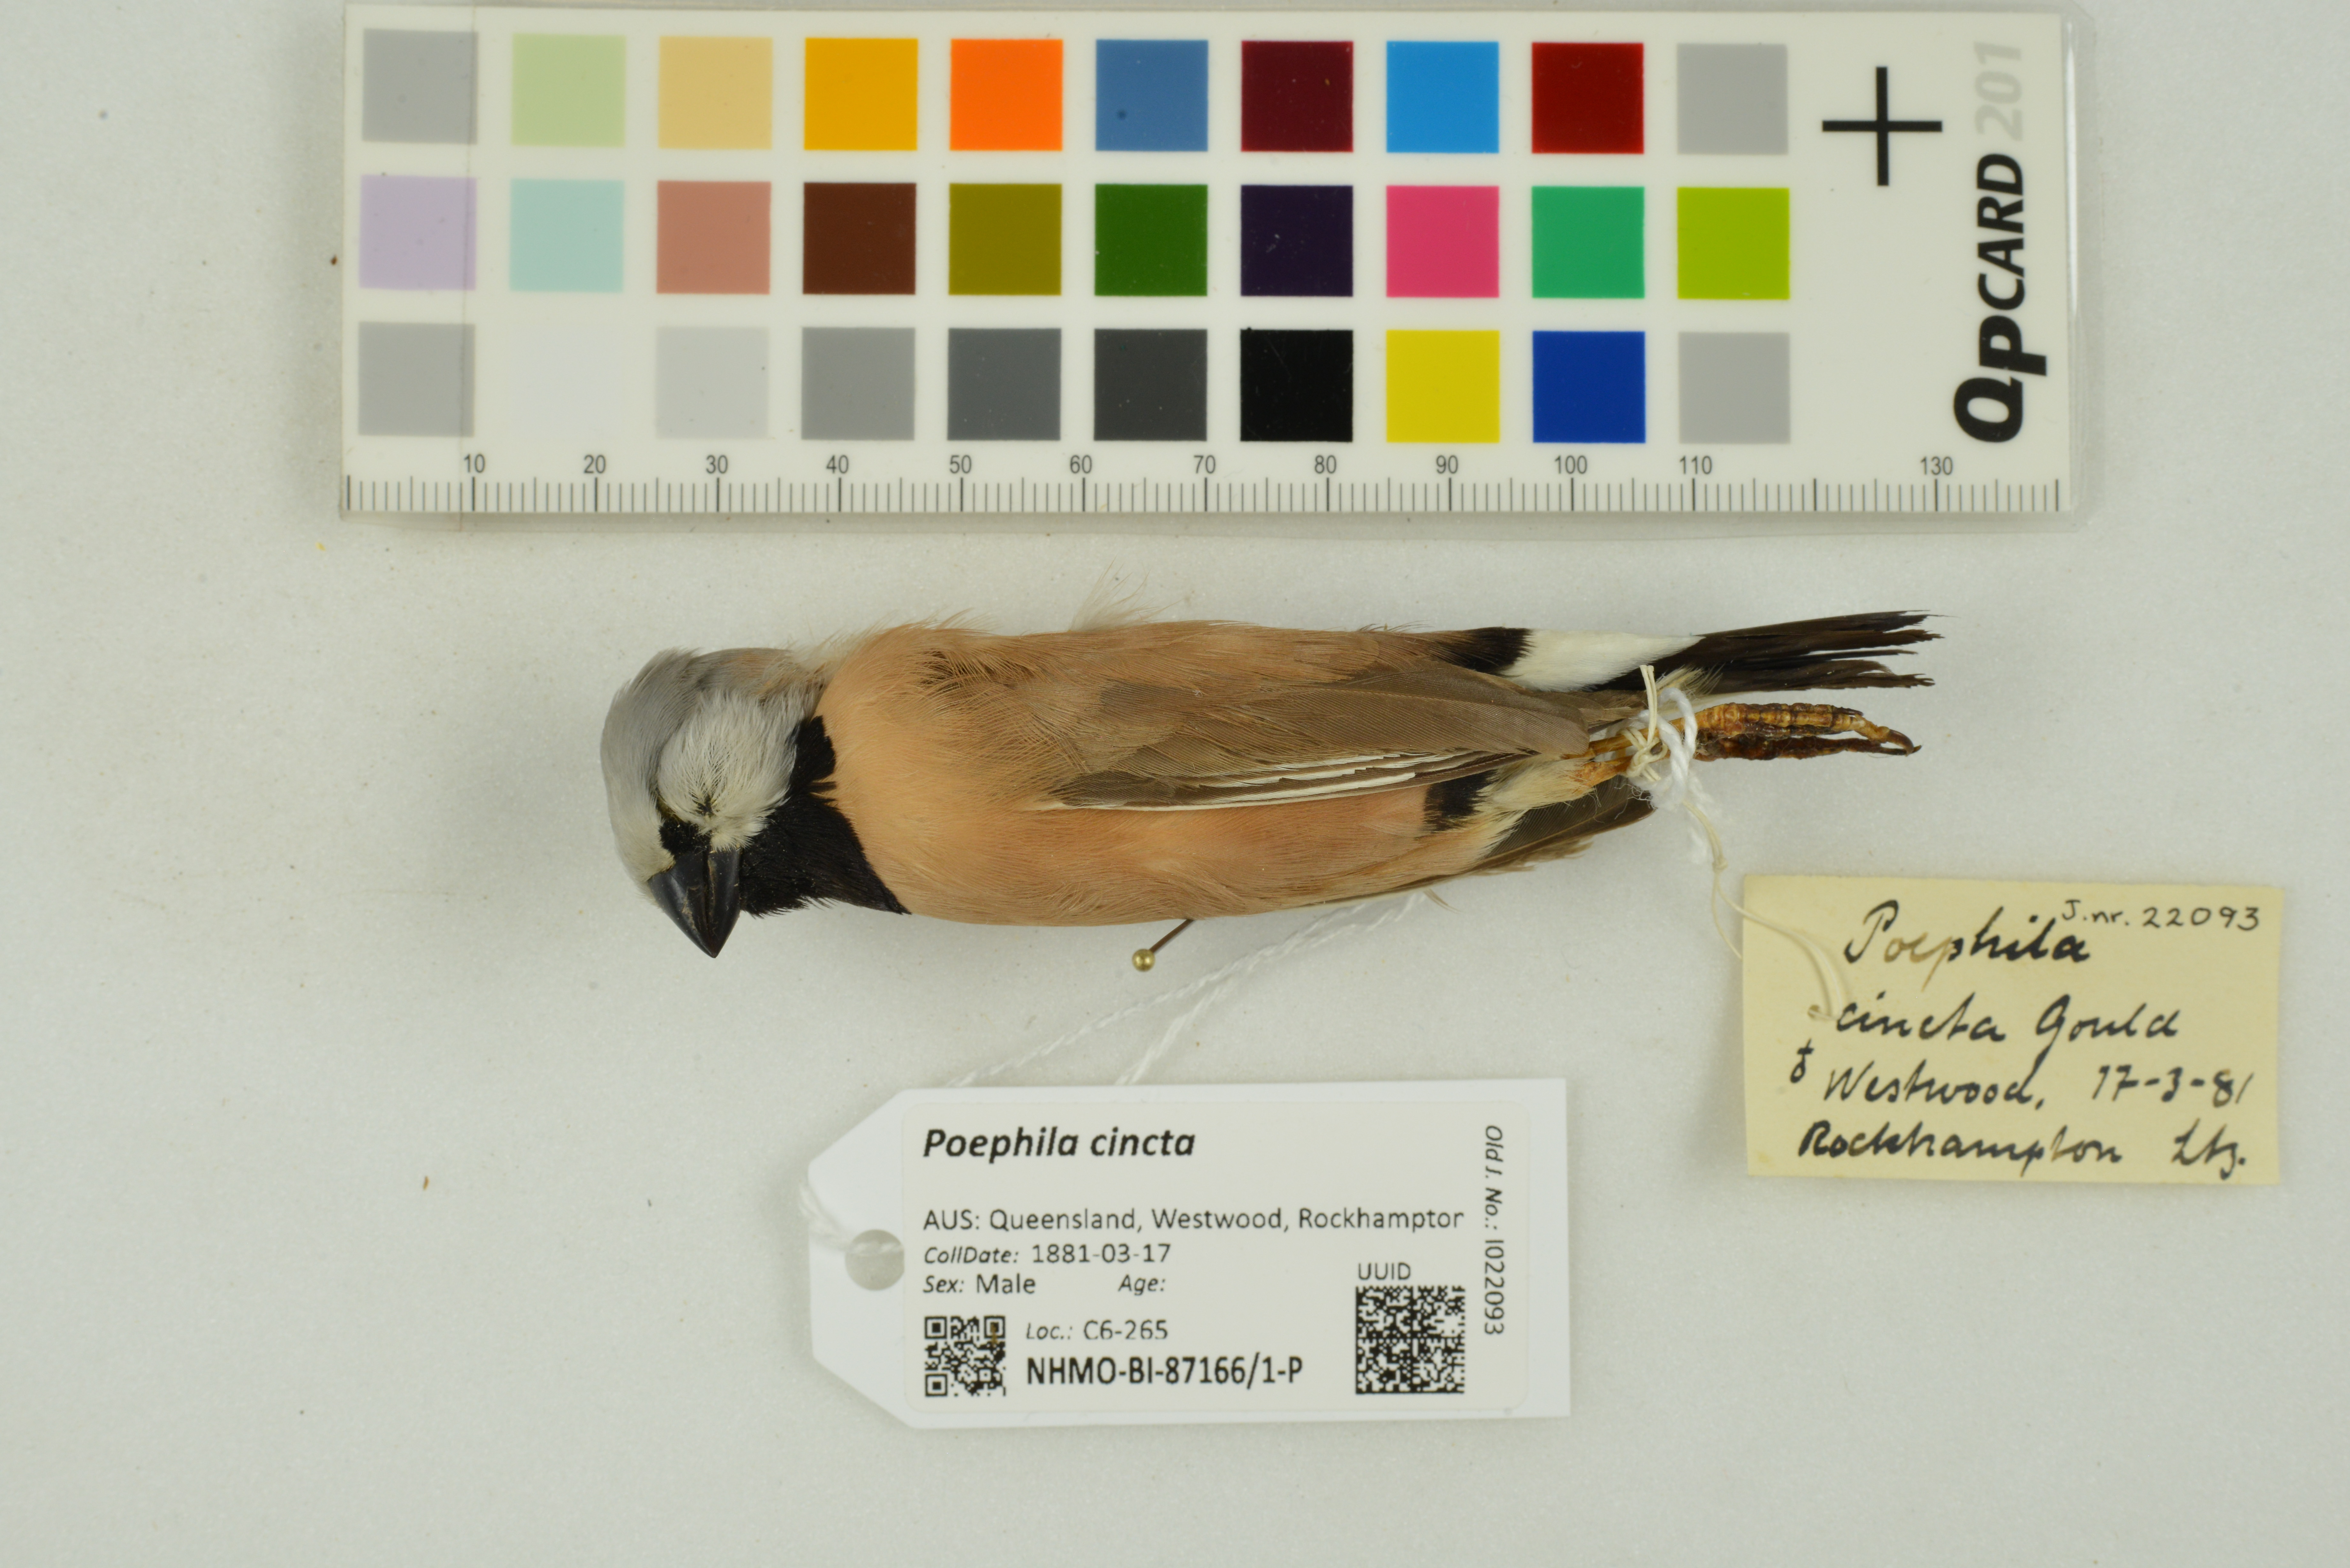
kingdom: Animalia
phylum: Chordata
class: Aves
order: Passeriformes
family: Estrildidae
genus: Poephila
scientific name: Poephila cincta
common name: Black-throated finch
